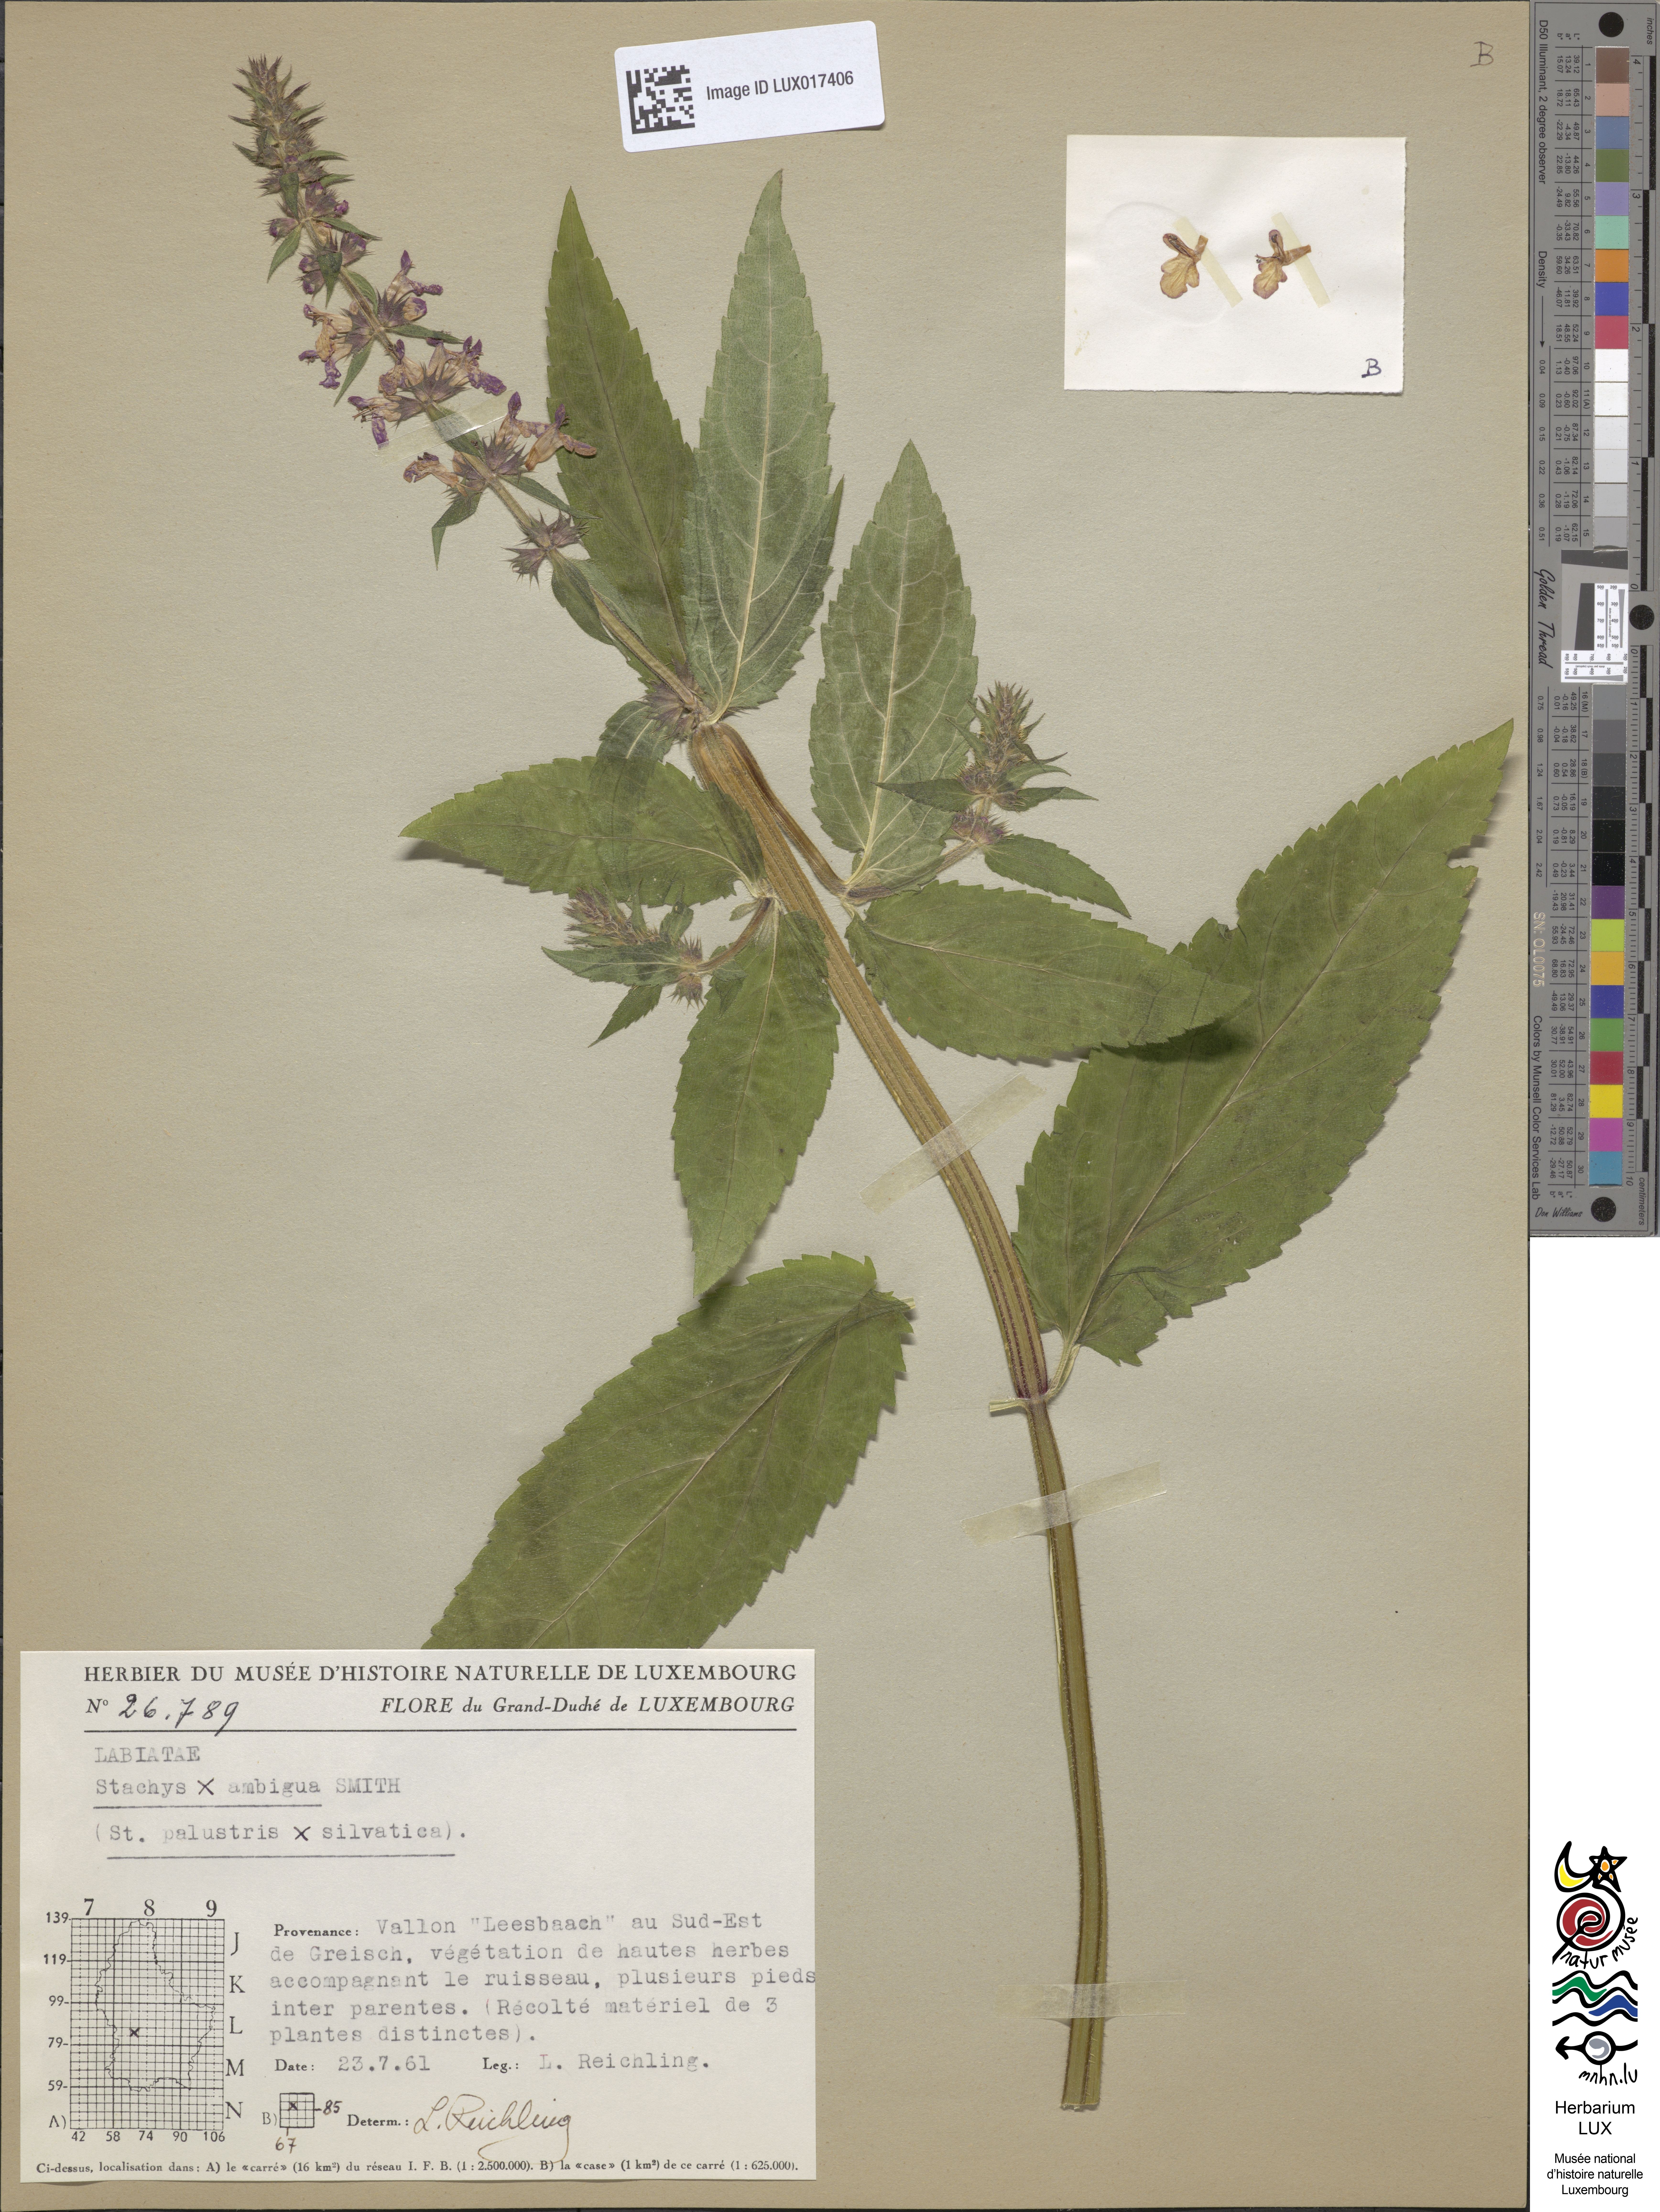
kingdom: Plantae
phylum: Tracheophyta
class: Magnoliopsida
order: Lamiales
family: Lamiaceae
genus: Stachys
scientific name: Stachys ambigua
